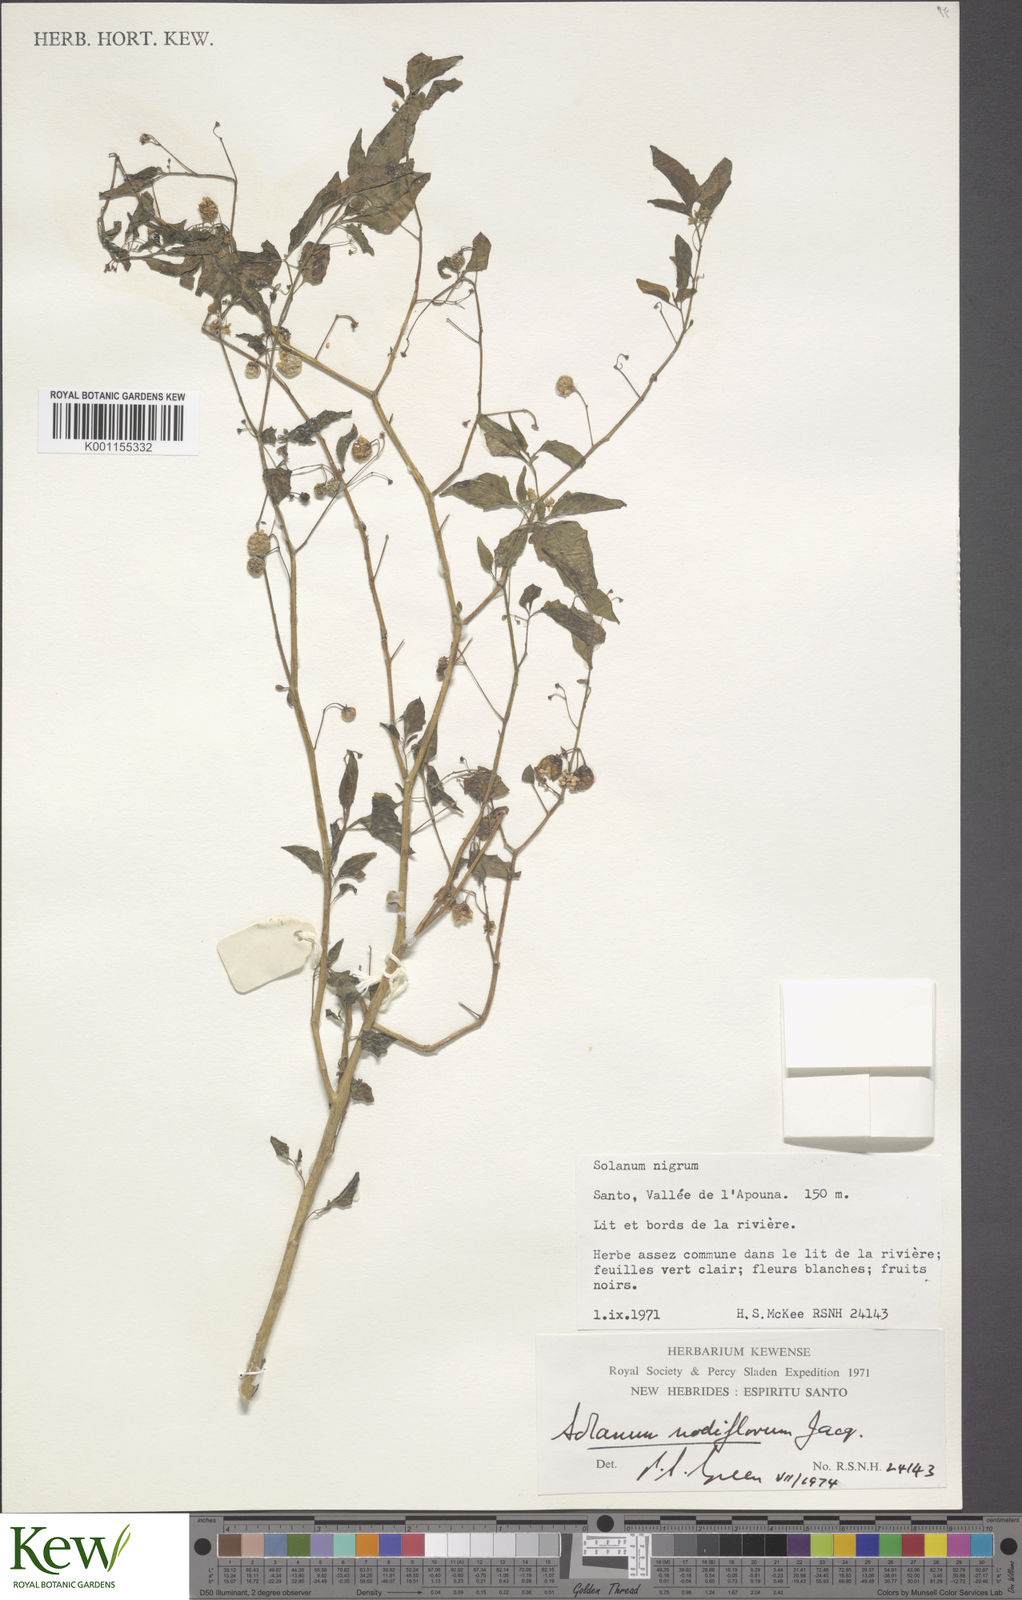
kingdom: Plantae
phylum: Tracheophyta
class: Magnoliopsida
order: Solanales
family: Solanaceae
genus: Solanum
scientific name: Solanum americanum
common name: American black nightshade
